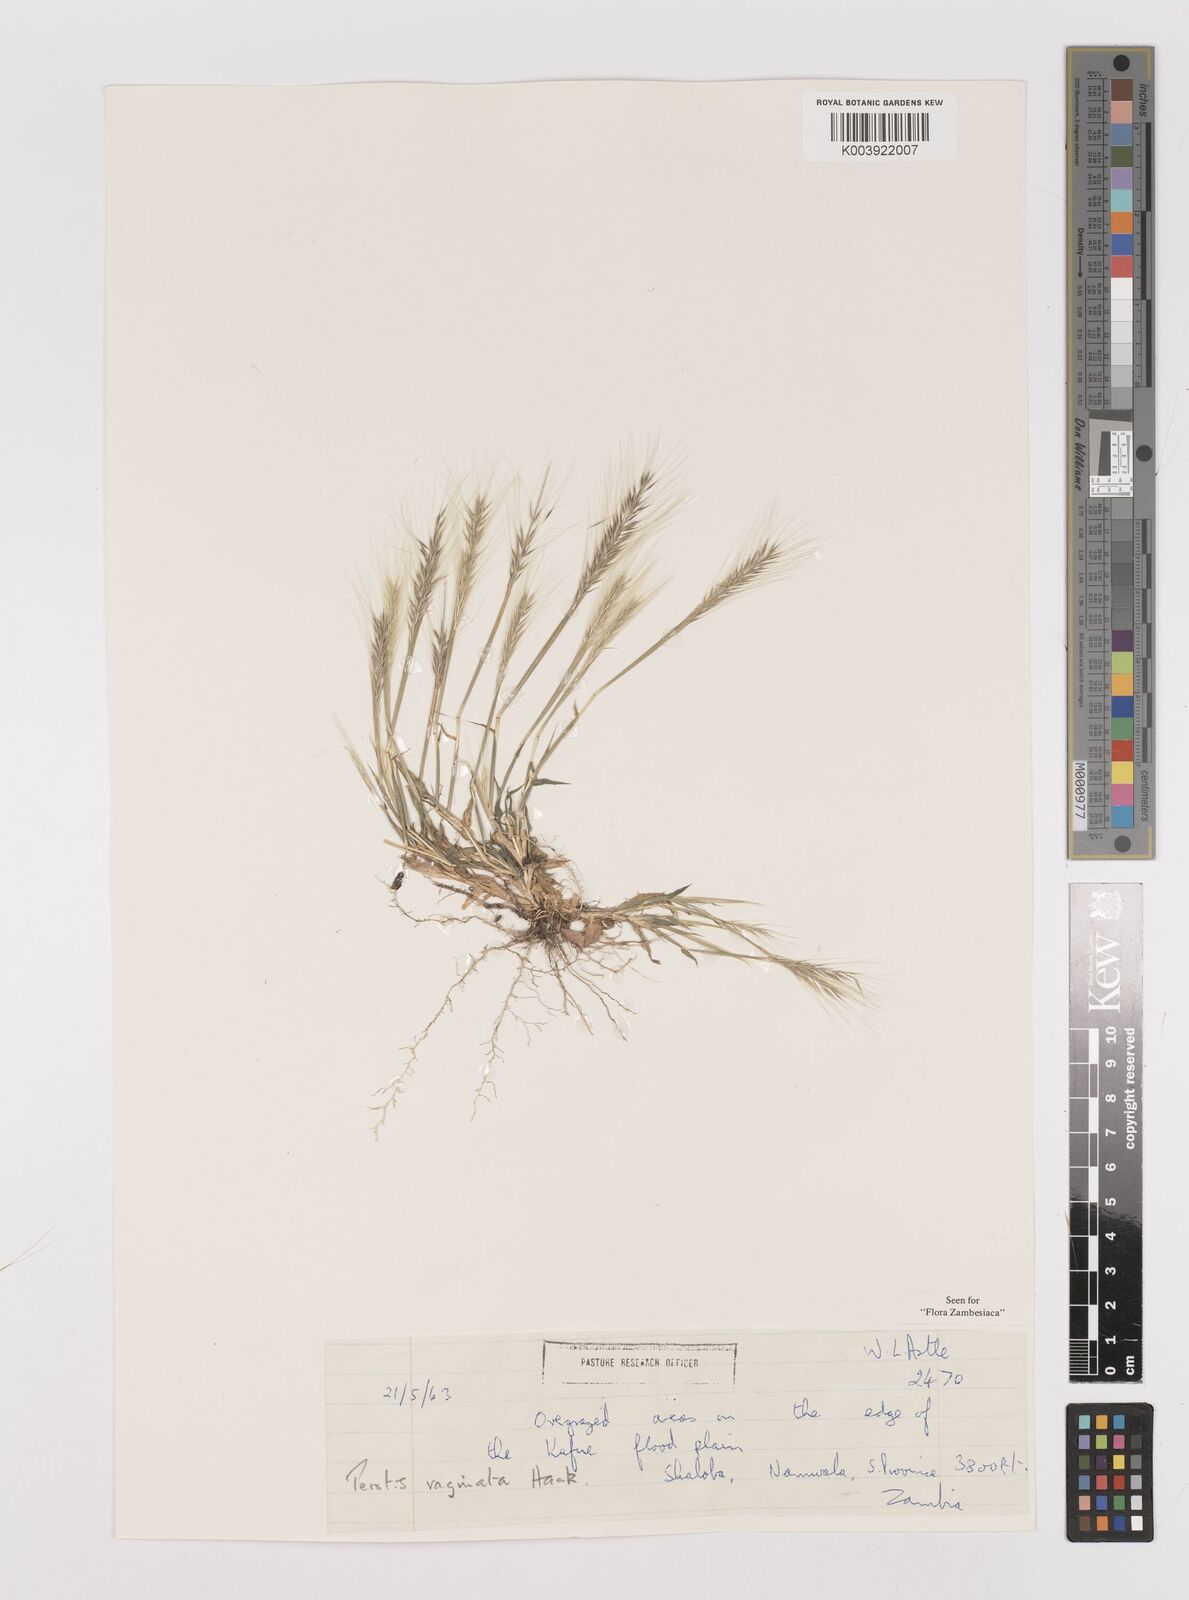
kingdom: Plantae
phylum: Tracheophyta
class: Liliopsida
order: Poales
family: Poaceae
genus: Perotis
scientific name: Perotis vaginata
